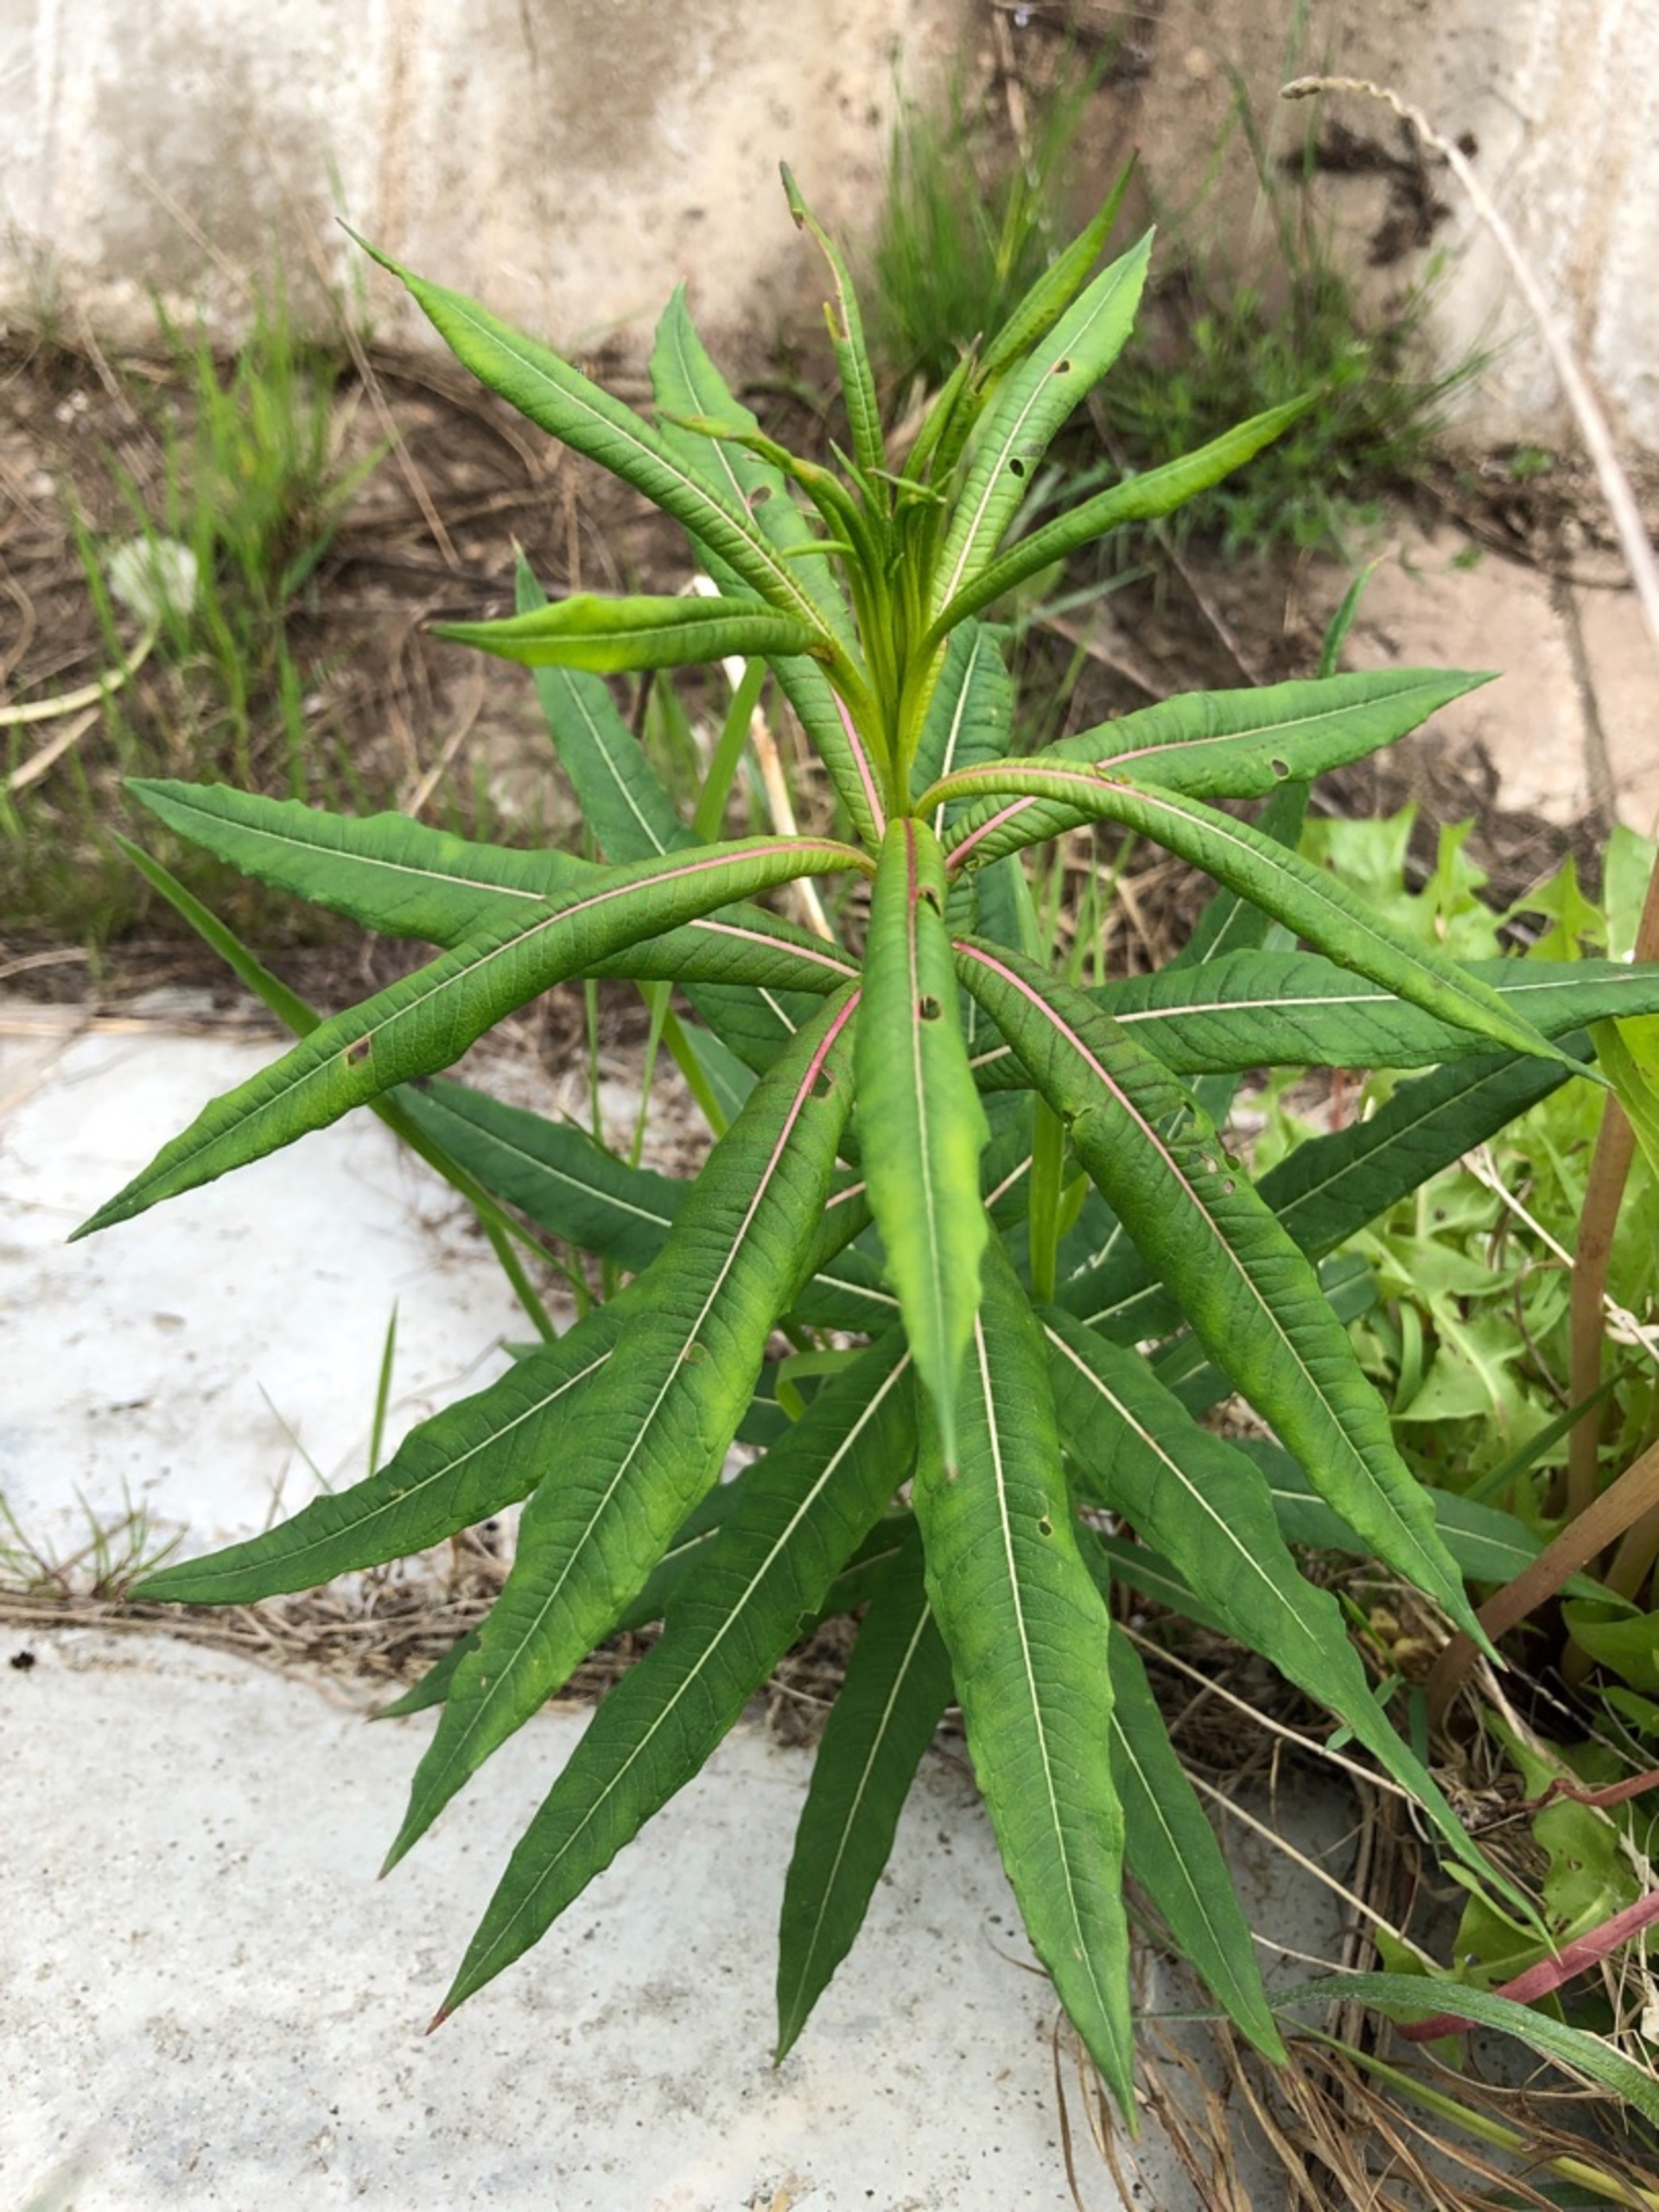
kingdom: Plantae
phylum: Tracheophyta
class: Magnoliopsida
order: Myrtales
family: Onagraceae
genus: Chamaenerion
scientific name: Chamaenerion angustifolium
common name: Gederams
